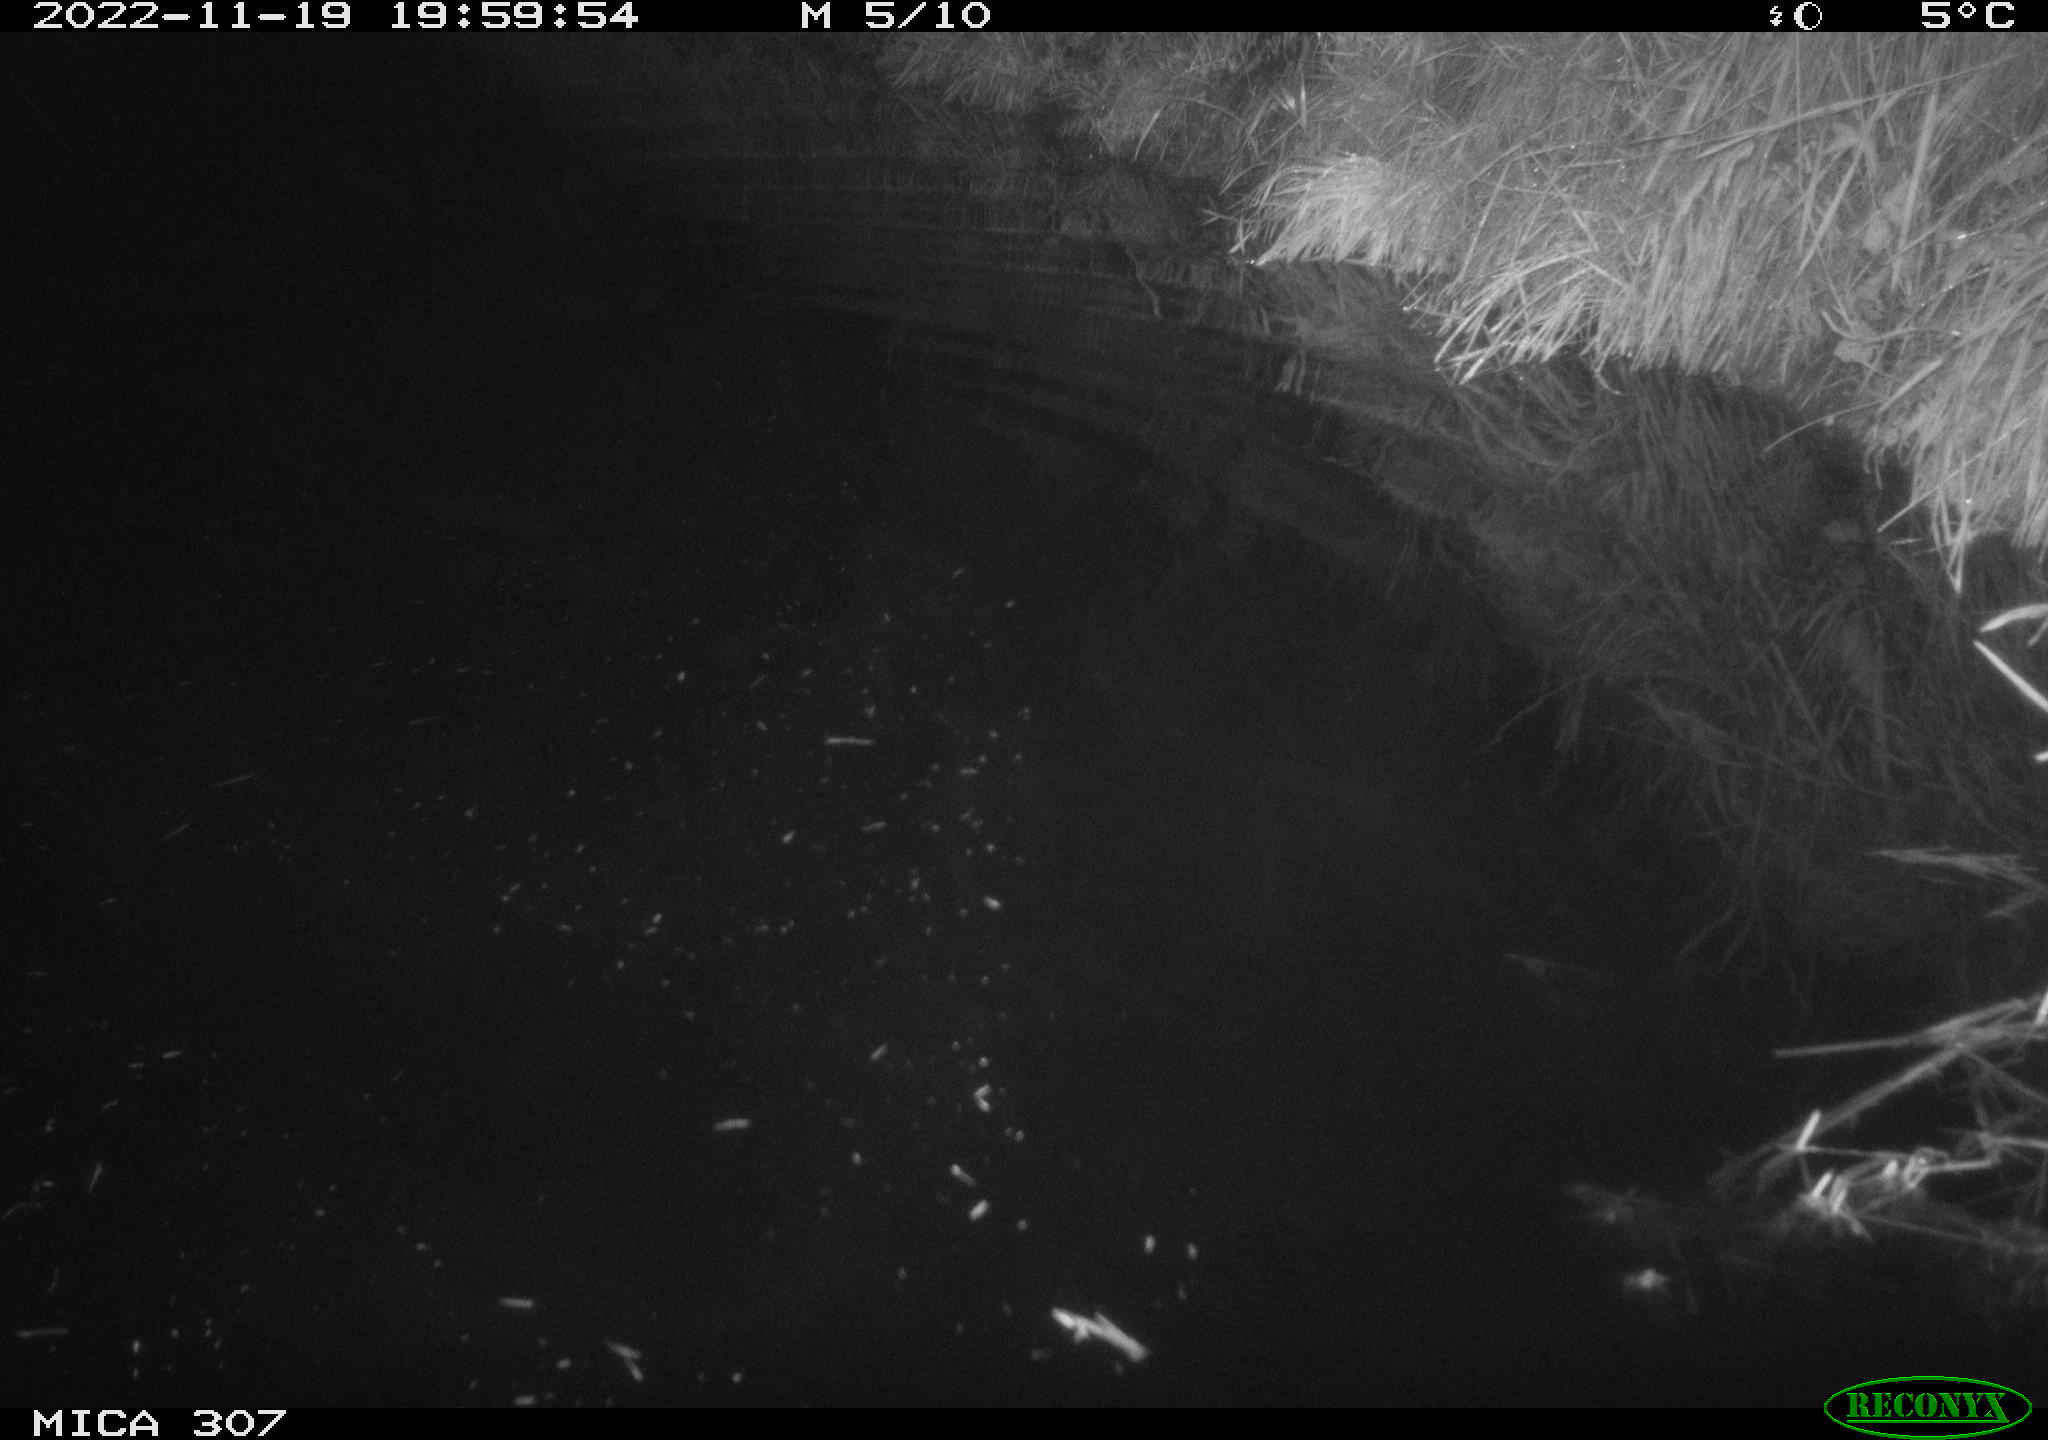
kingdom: Animalia
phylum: Chordata
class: Mammalia
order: Rodentia
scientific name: Rodentia
